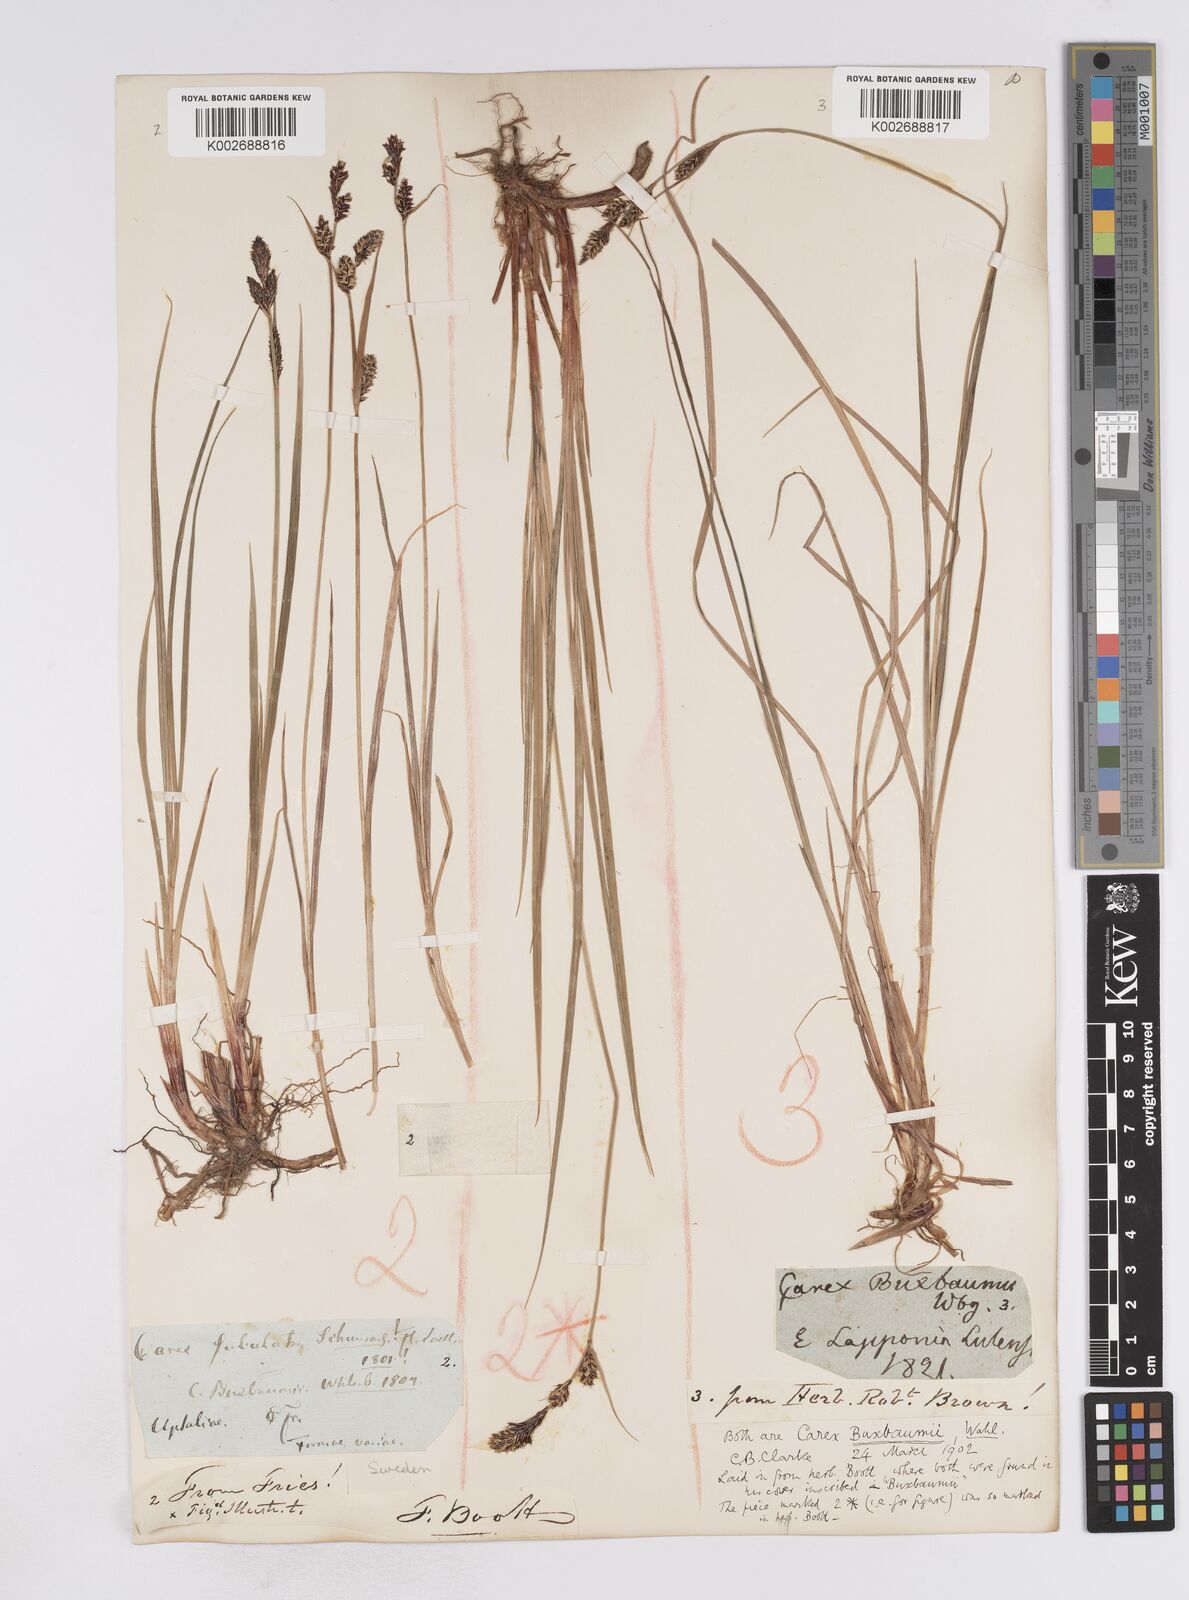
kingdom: Plantae
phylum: Tracheophyta
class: Liliopsida
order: Poales
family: Cyperaceae
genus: Carex
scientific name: Carex buxbaumii
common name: Club sedge
